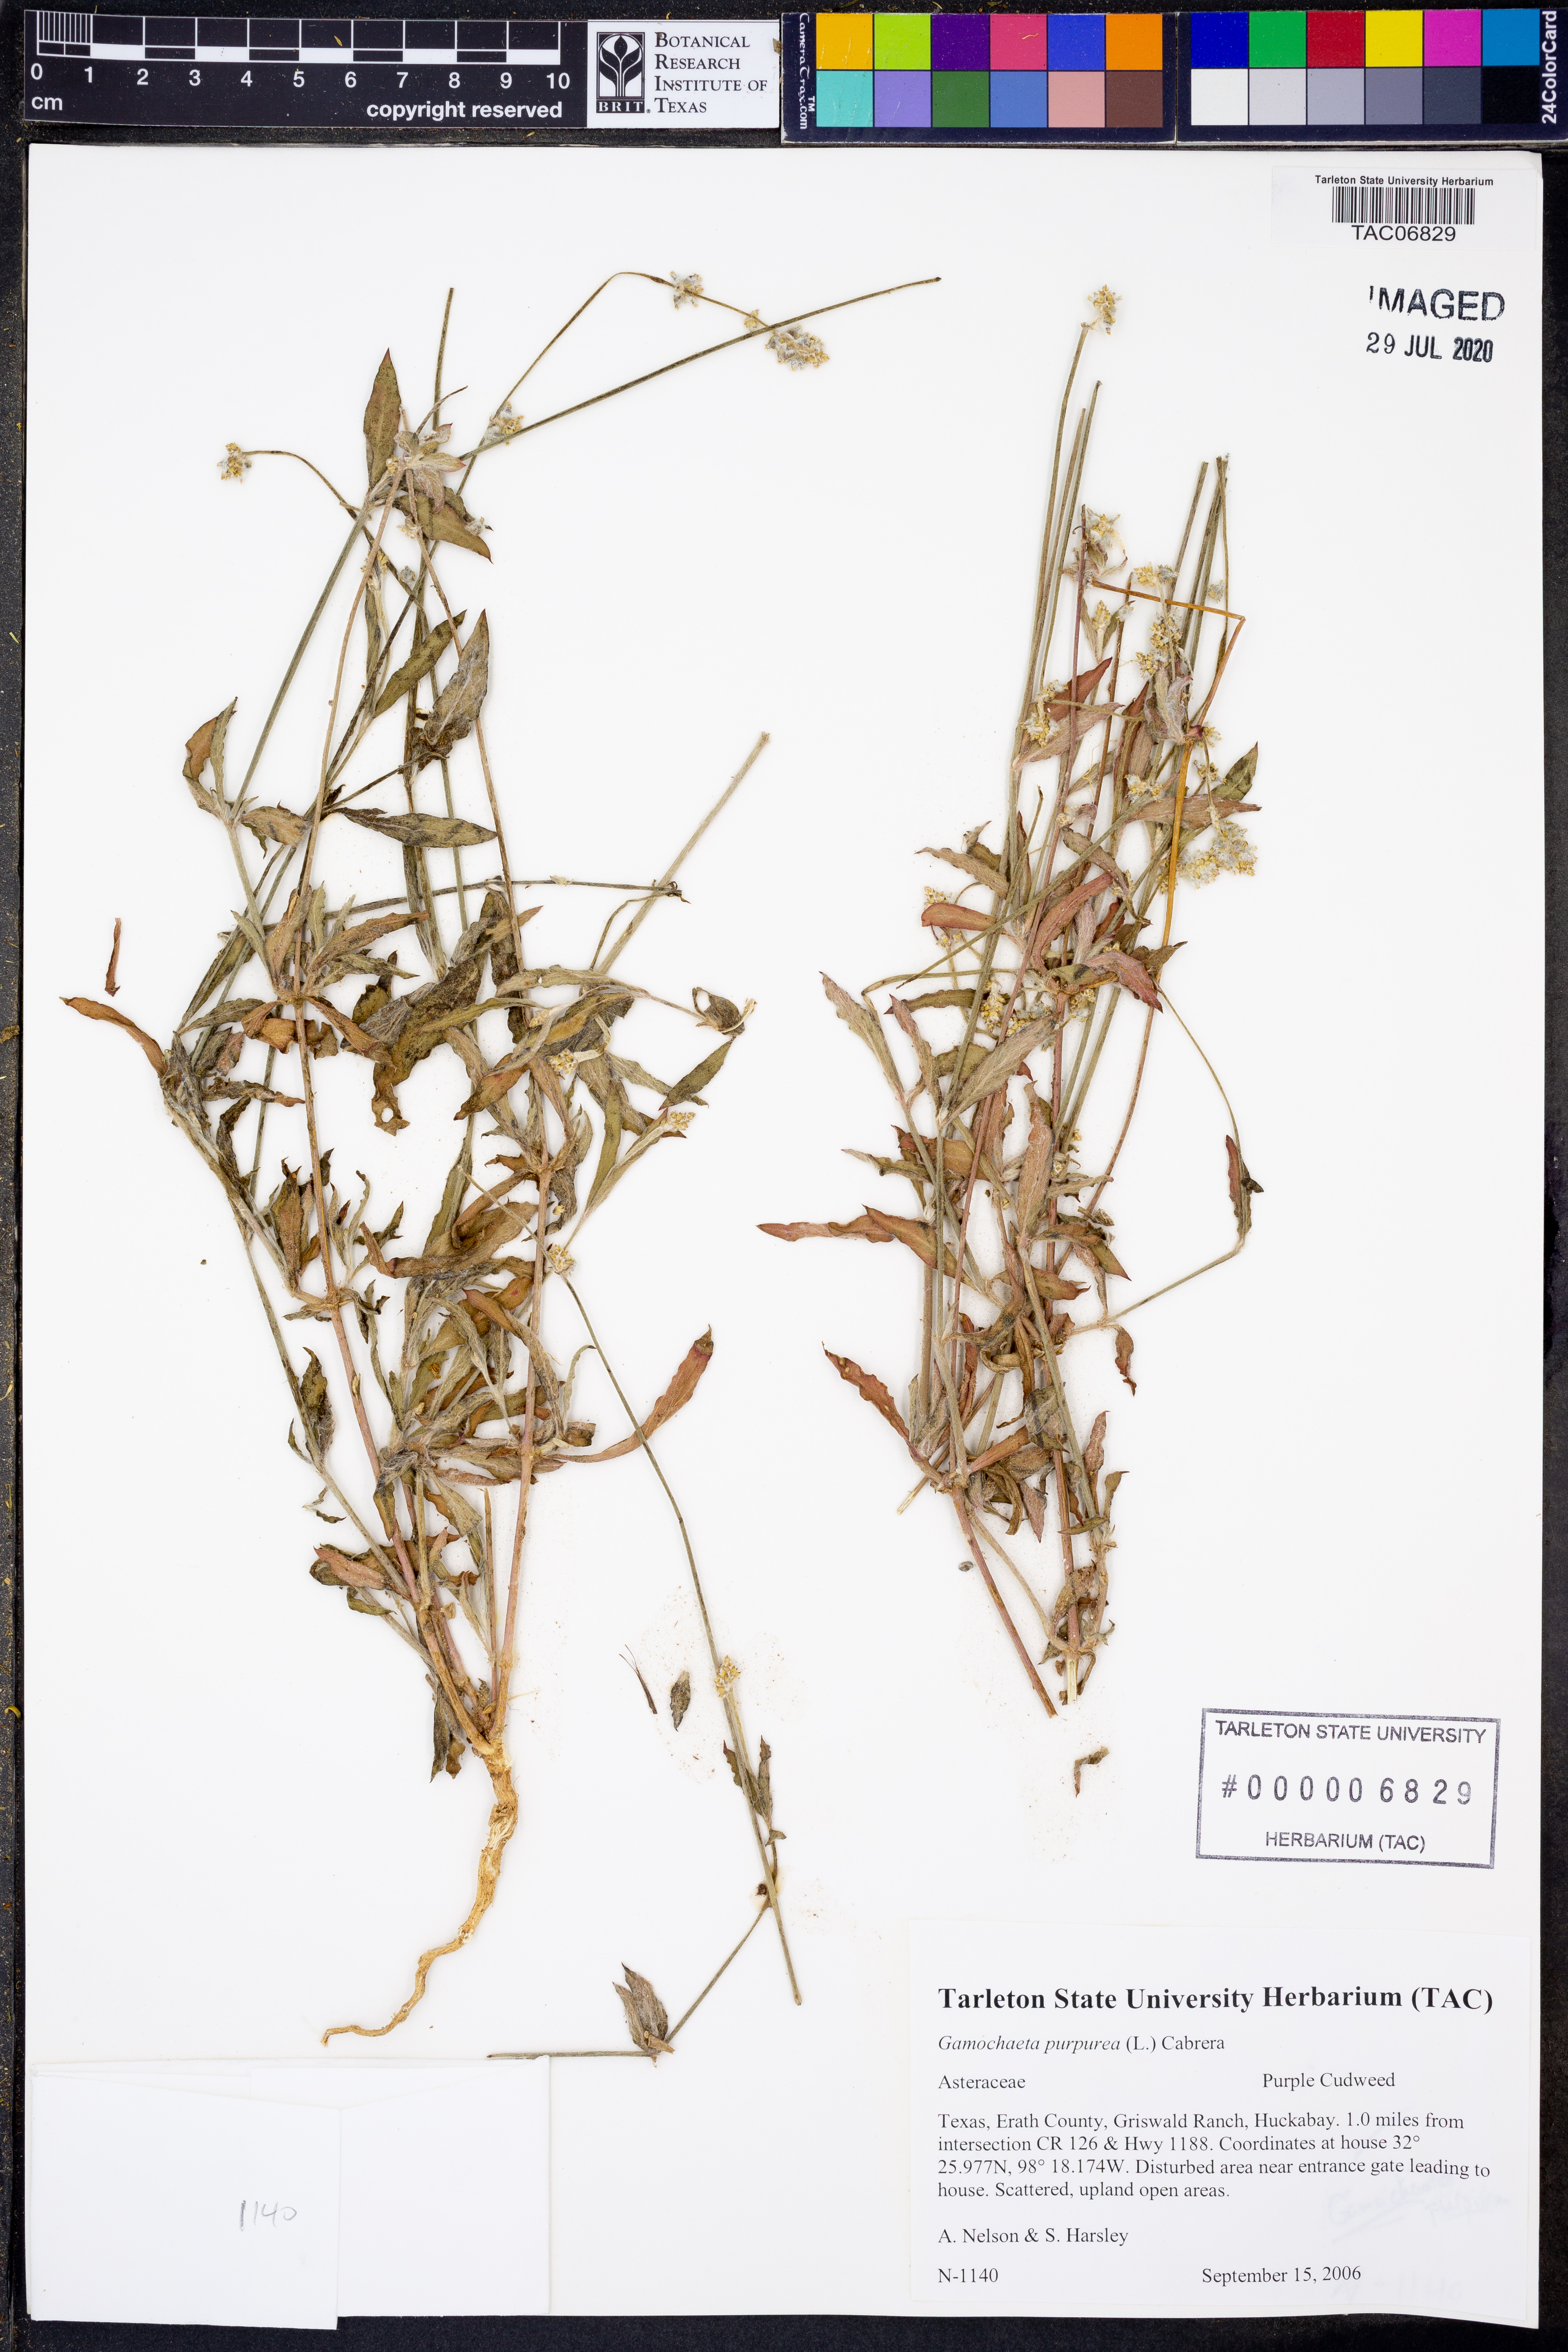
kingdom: Plantae
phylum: Tracheophyta
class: Magnoliopsida
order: Asterales
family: Asteraceae
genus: Gamochaeta
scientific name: Gamochaeta purpurea
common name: Purple cudweed
